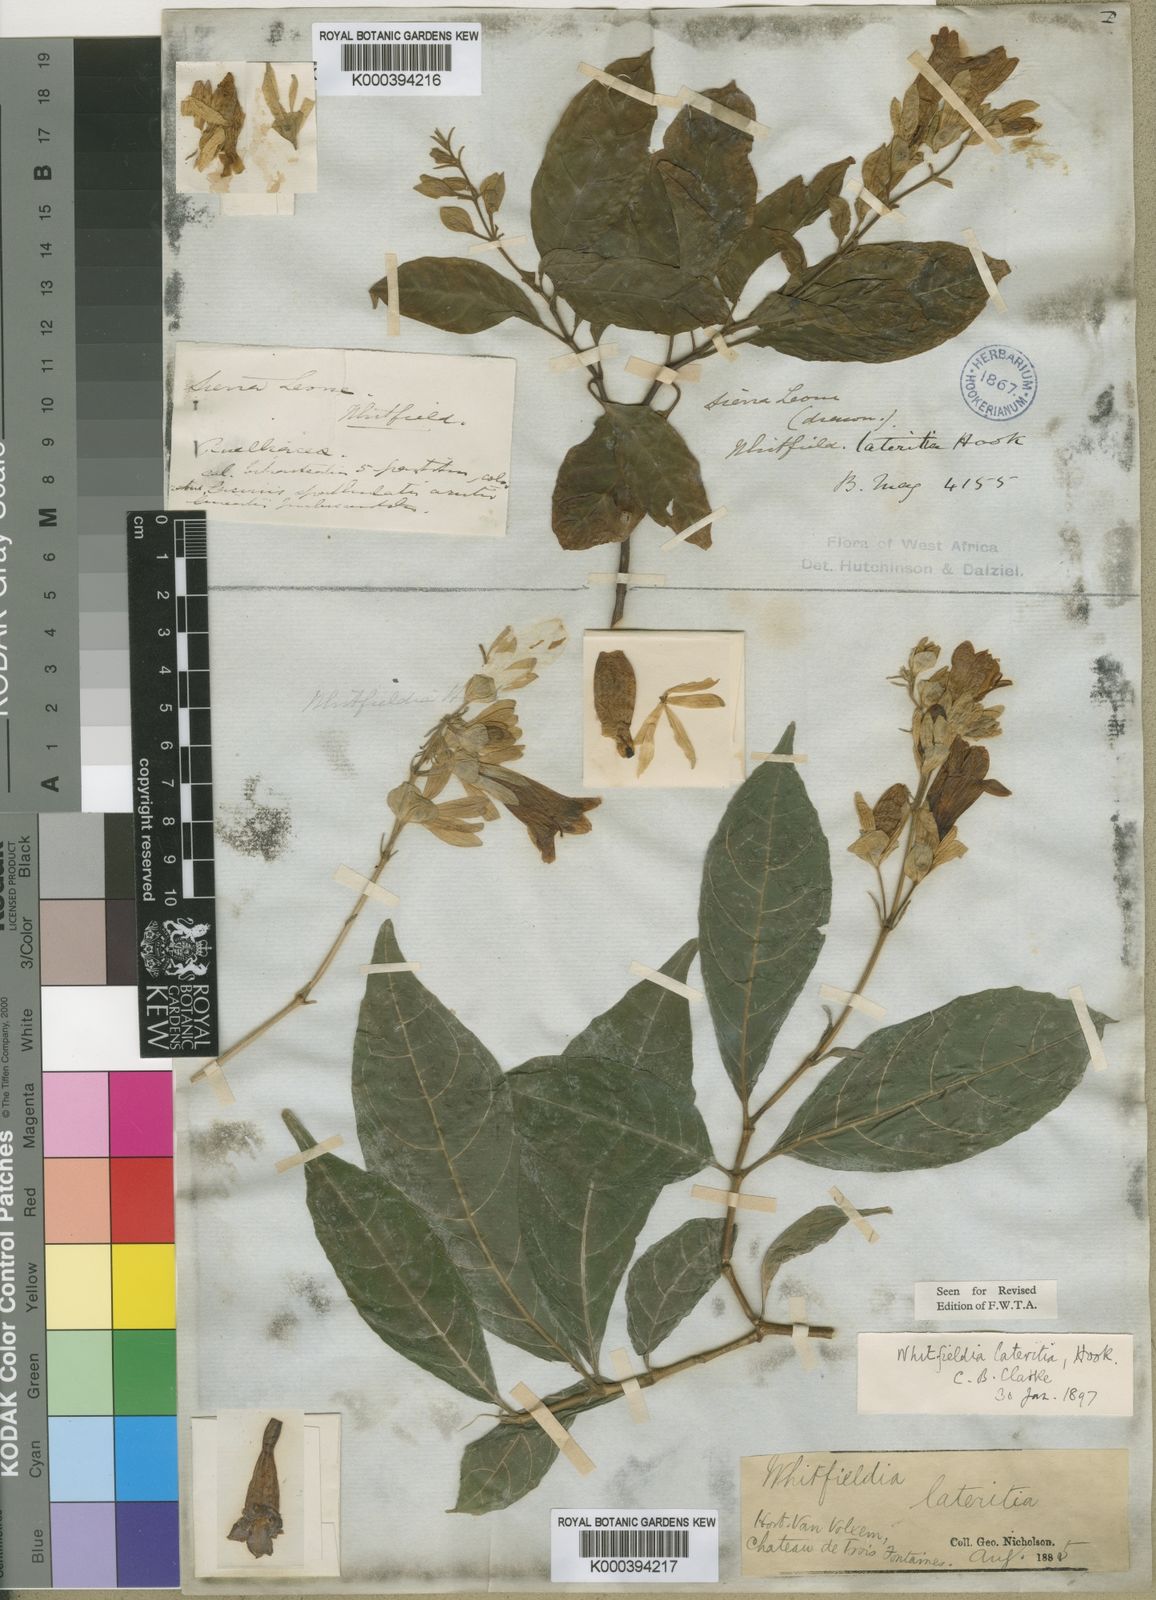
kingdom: Plantae
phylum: Tracheophyta
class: Magnoliopsida
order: Lamiales
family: Acanthaceae
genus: Whitfieldia
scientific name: Whitfieldia lateritia
